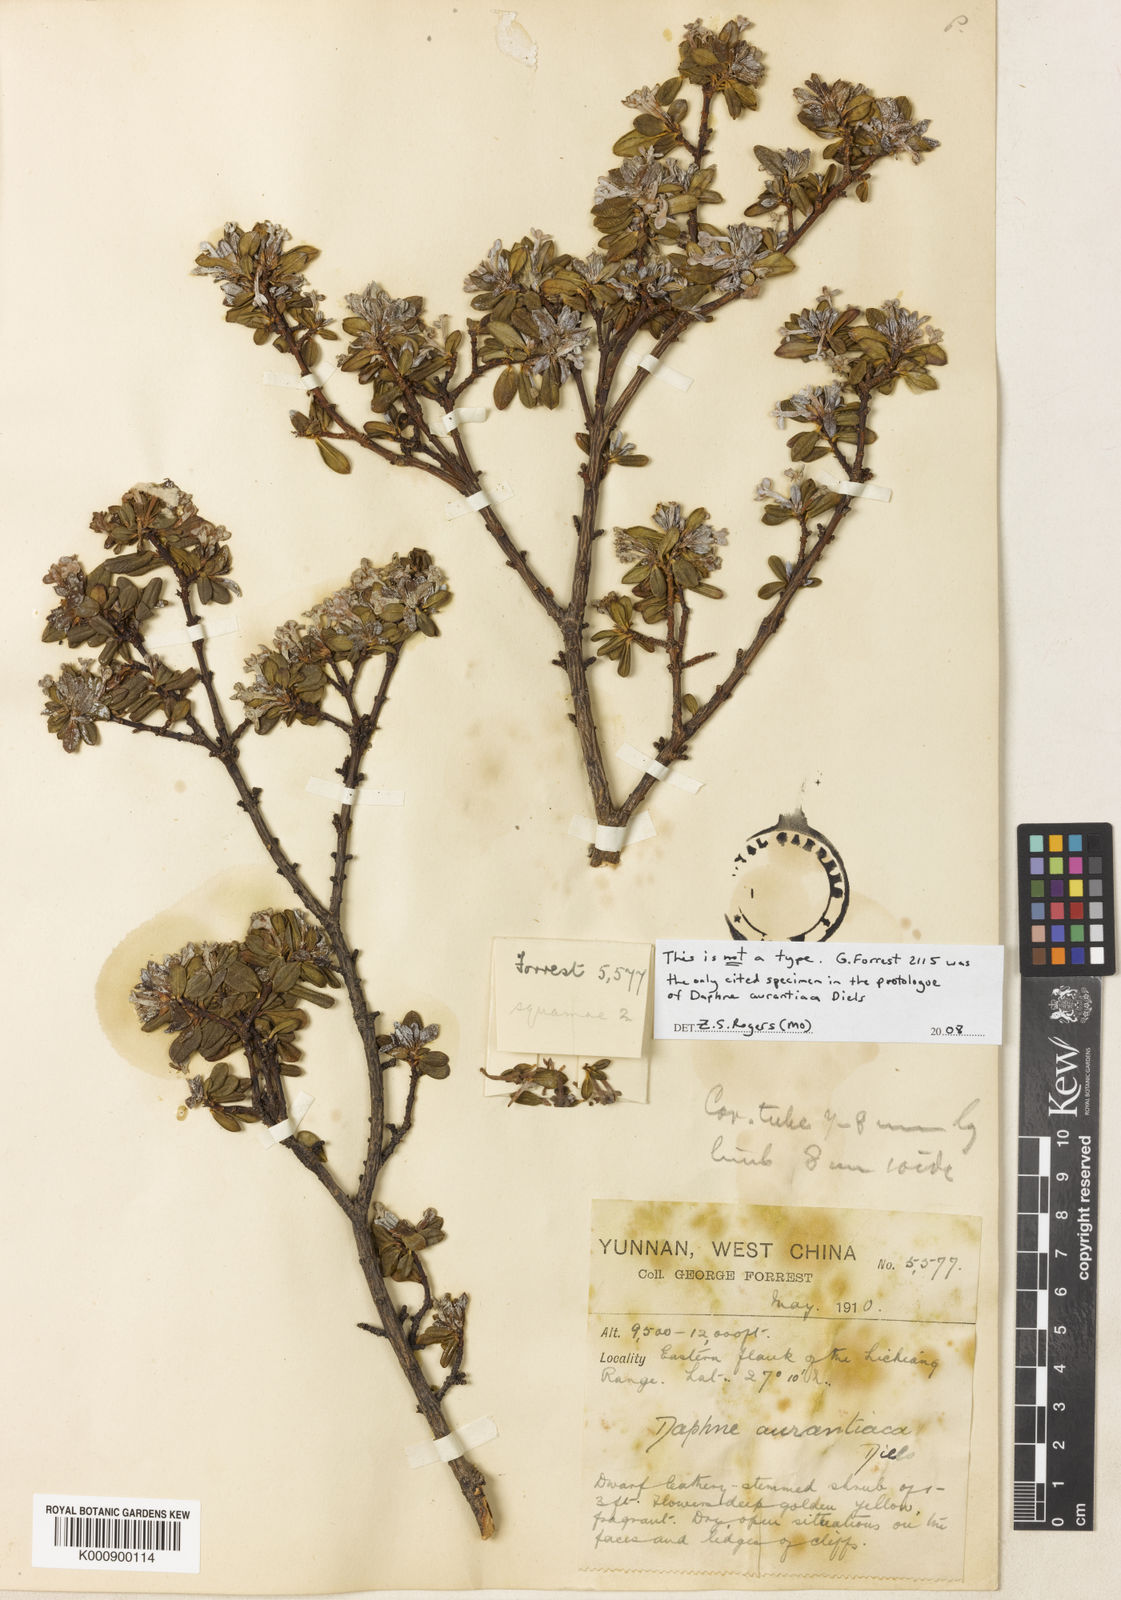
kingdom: Plantae
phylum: Tracheophyta
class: Magnoliopsida
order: Malvales
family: Thymelaeaceae
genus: Wikstroemia
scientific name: Wikstroemia aurantiaca
